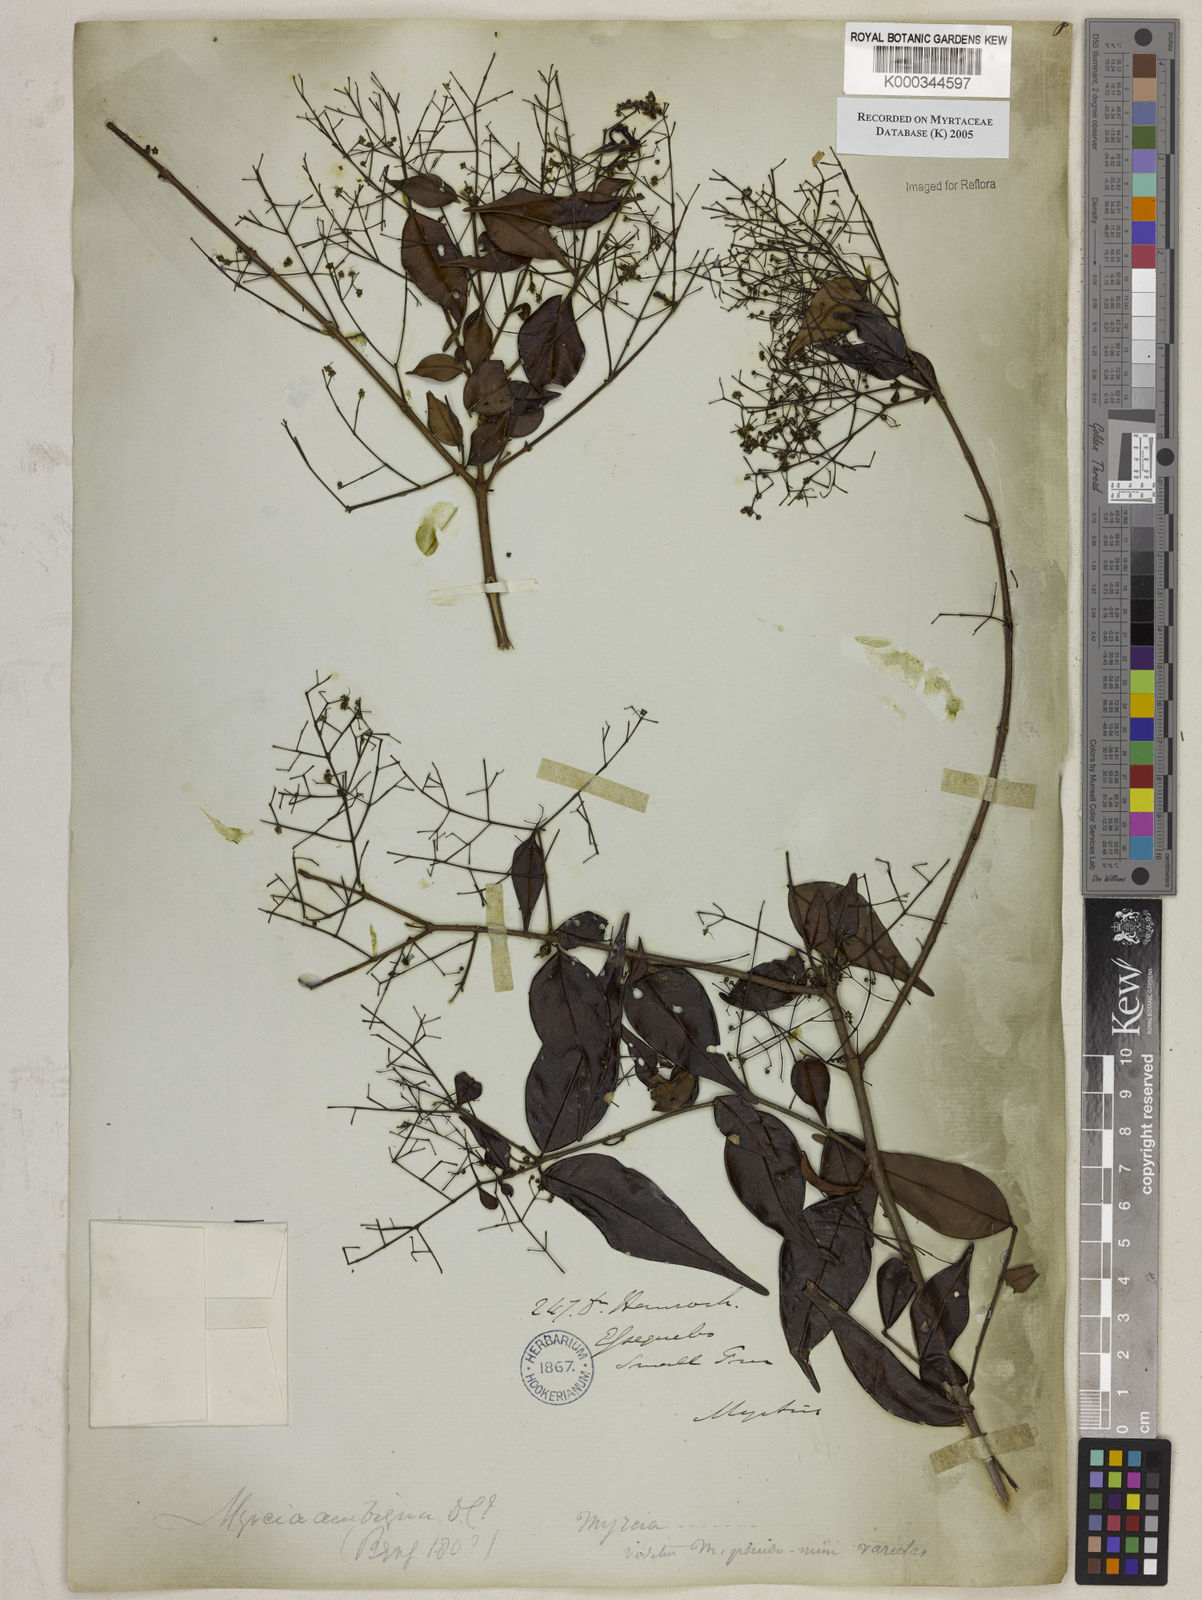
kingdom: Plantae
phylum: Tracheophyta
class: Magnoliopsida
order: Myrtales
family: Myrtaceae
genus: Myrcia
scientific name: Myrcia sylvatica
